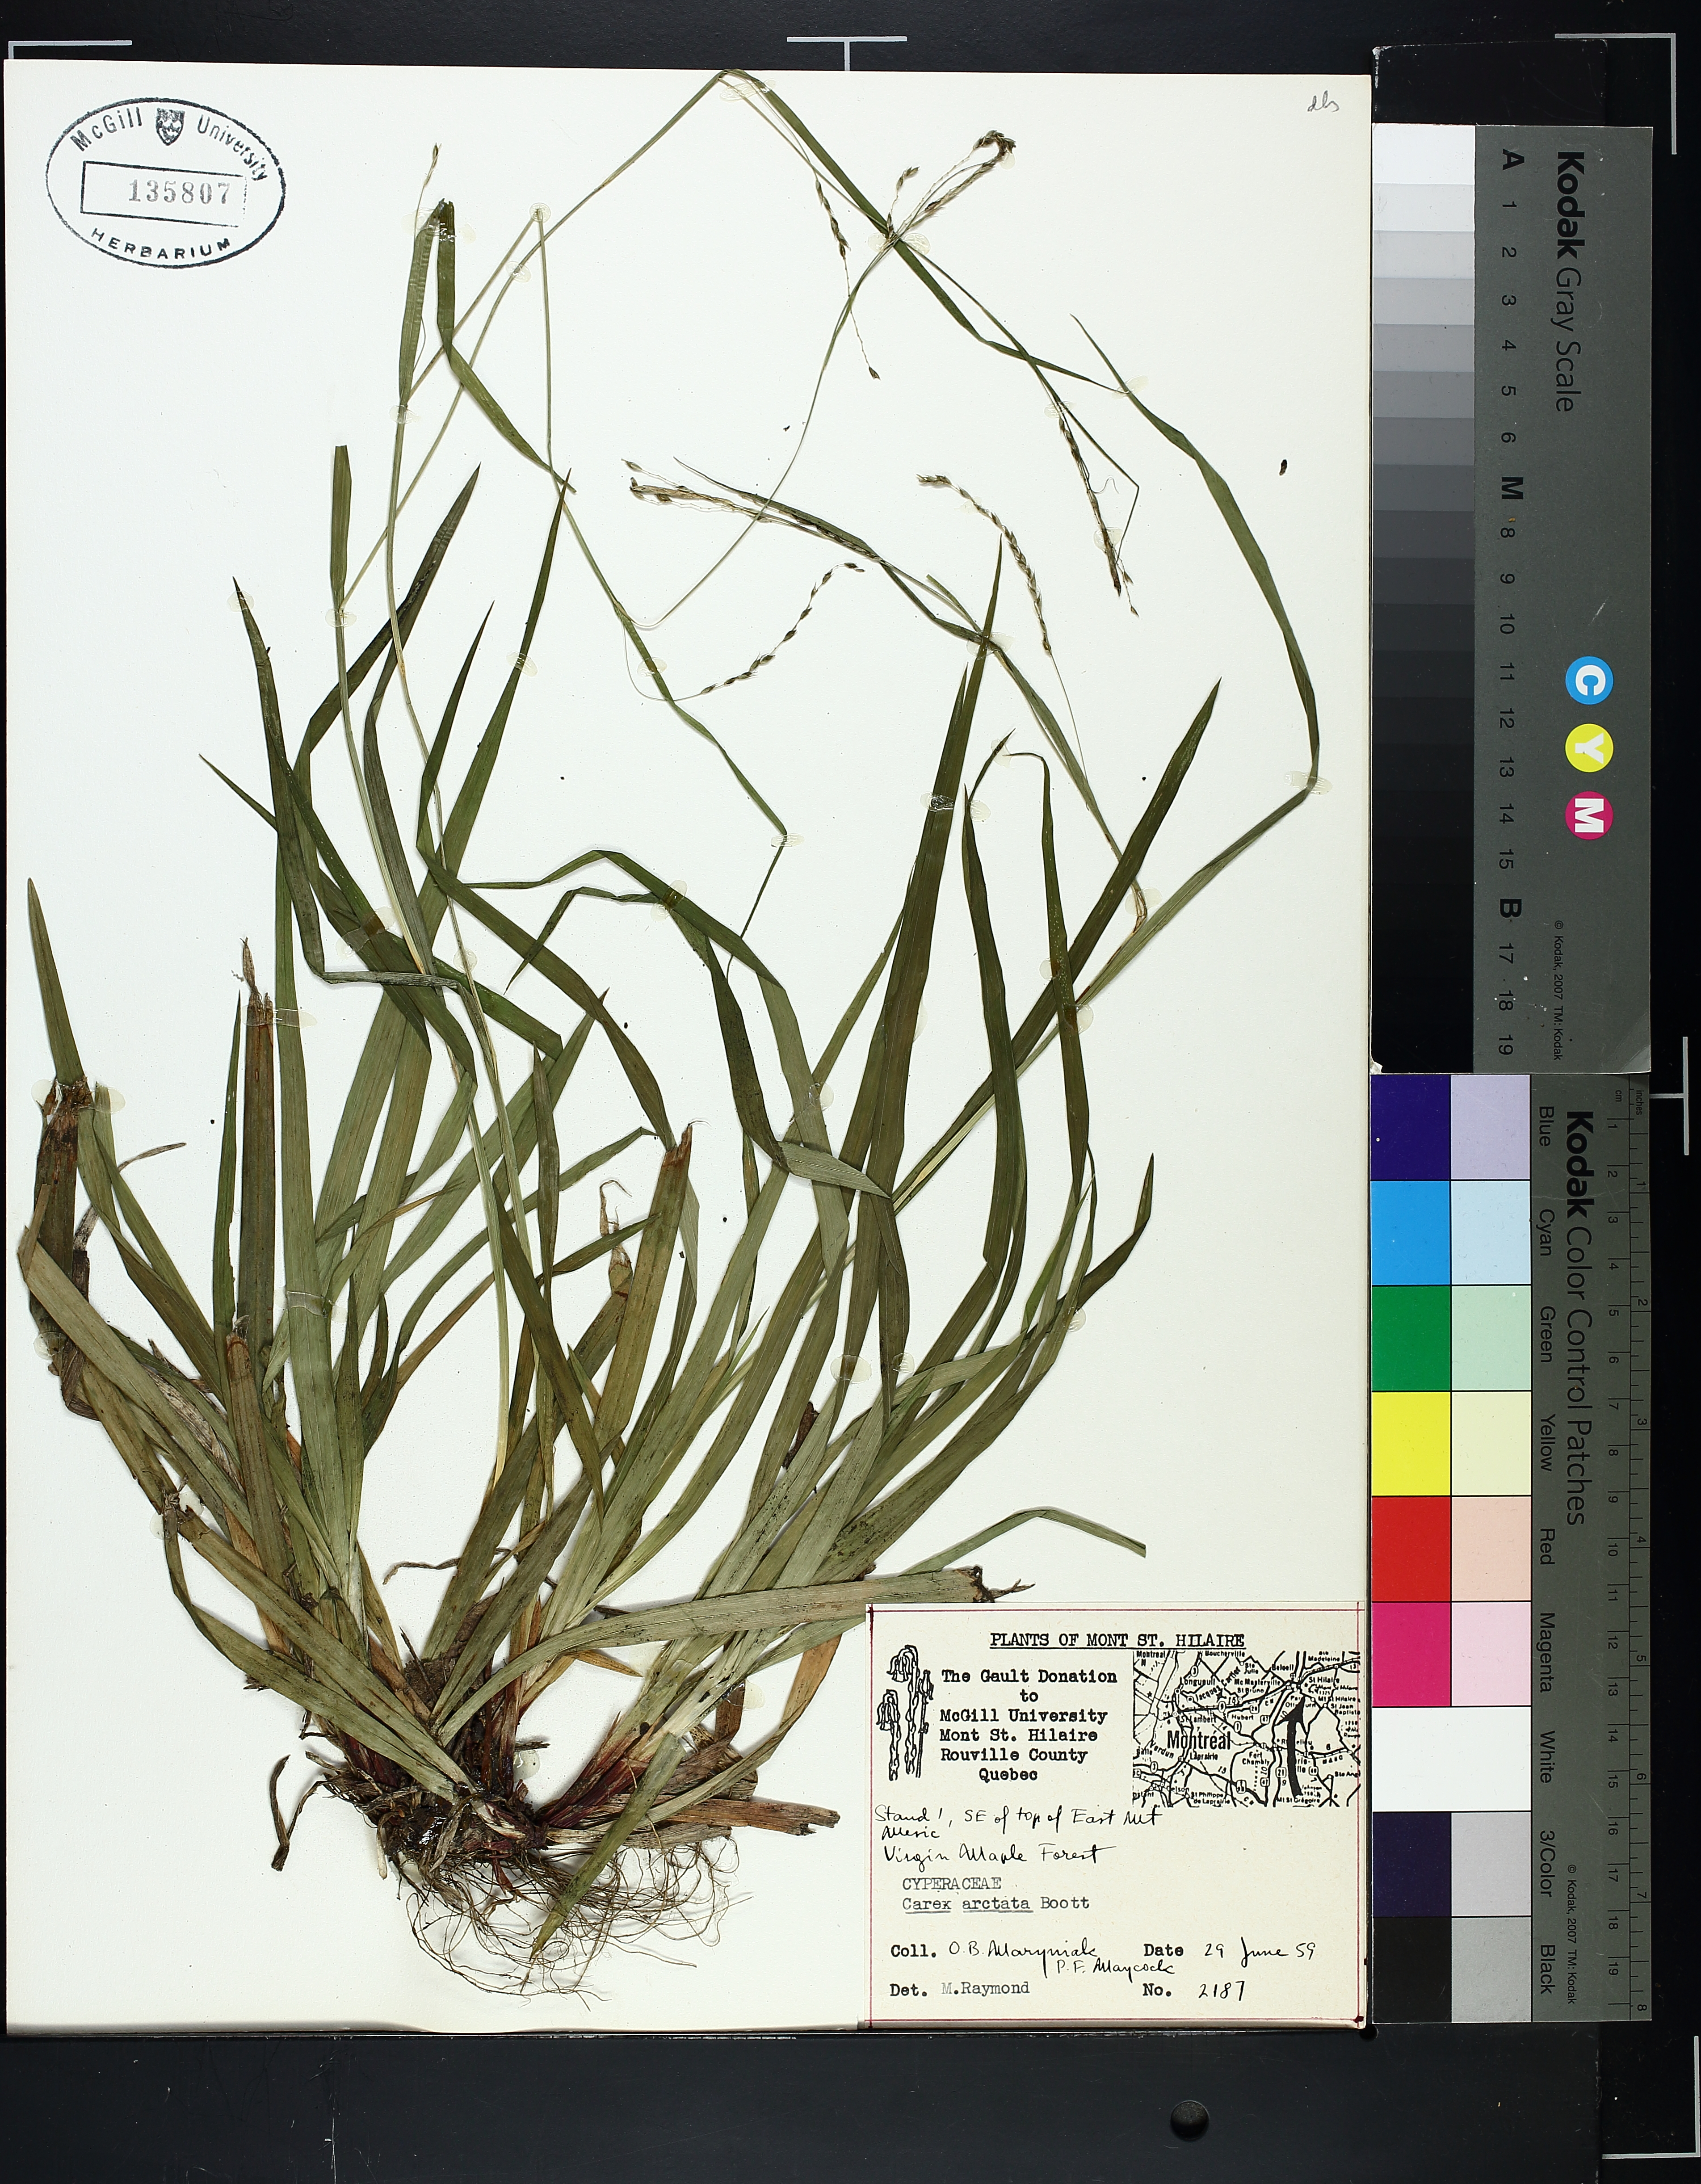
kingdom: Plantae
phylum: Tracheophyta
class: Liliopsida
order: Poales
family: Cyperaceae
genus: Carex
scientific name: Carex arctata
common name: Black sedge
